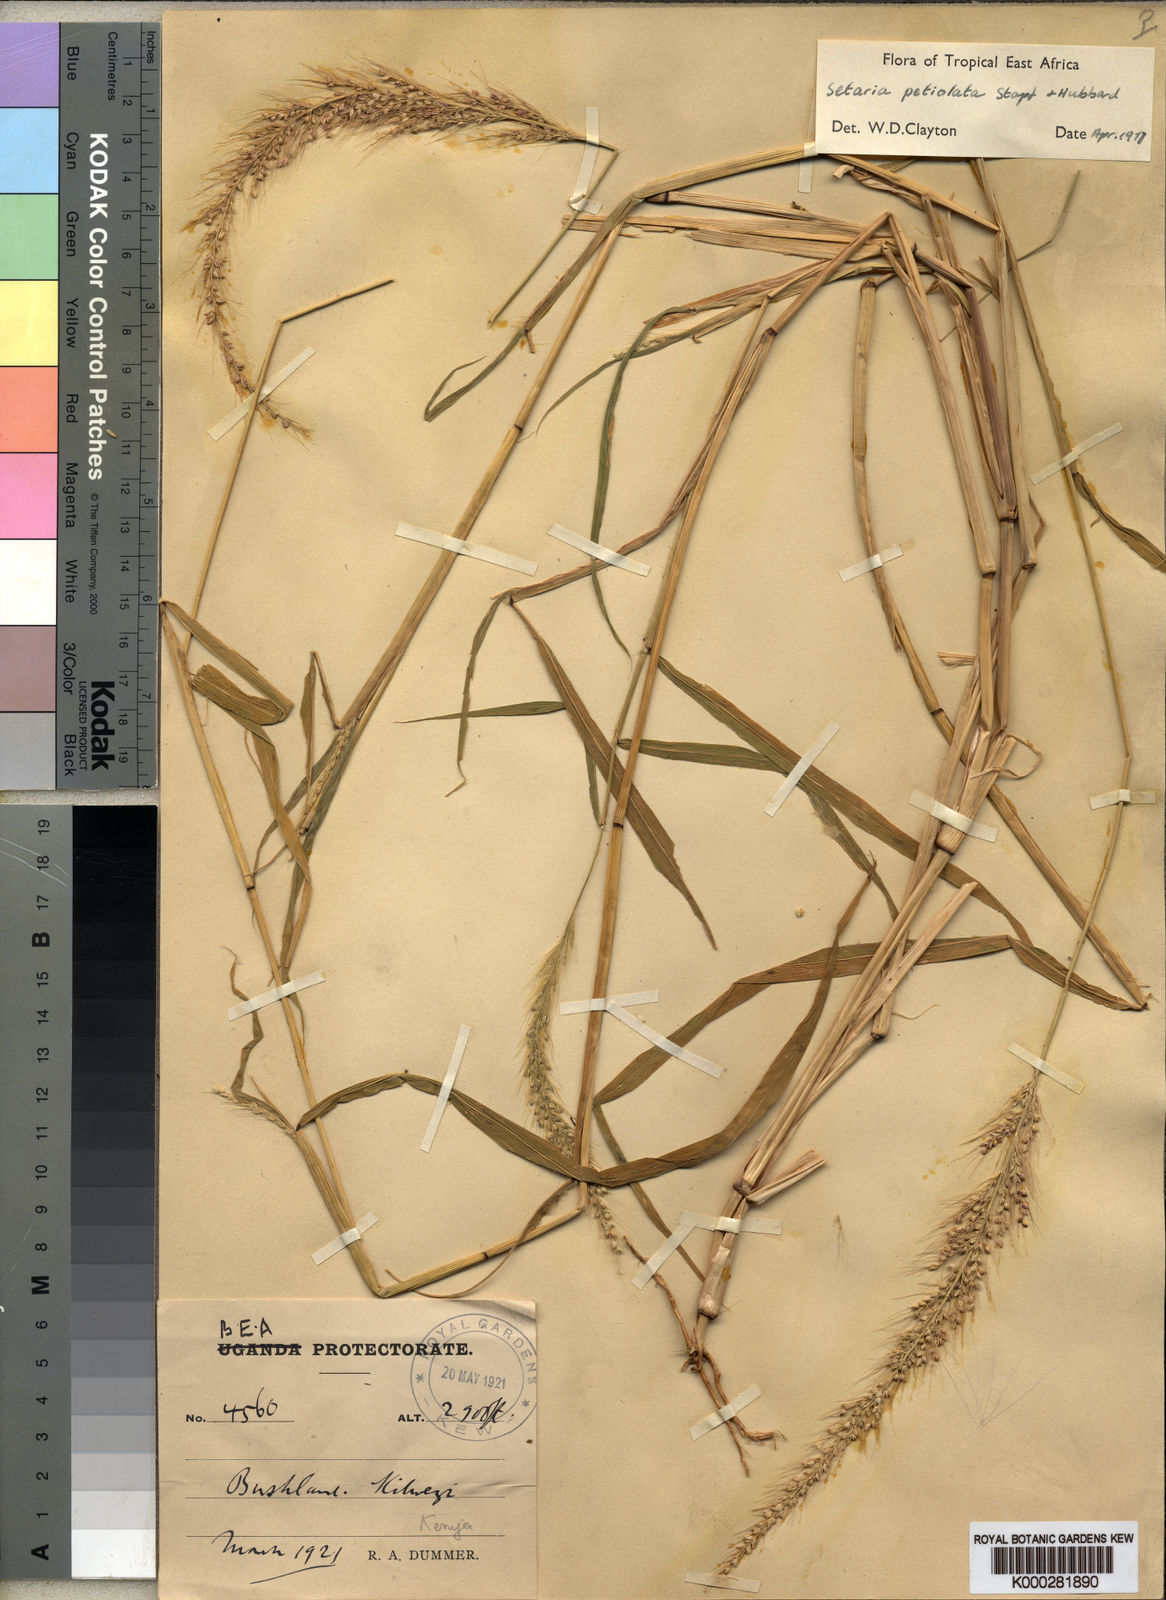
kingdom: Plantae
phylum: Tracheophyta
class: Liliopsida
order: Poales
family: Poaceae
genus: Setaria
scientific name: Setaria petiolata
